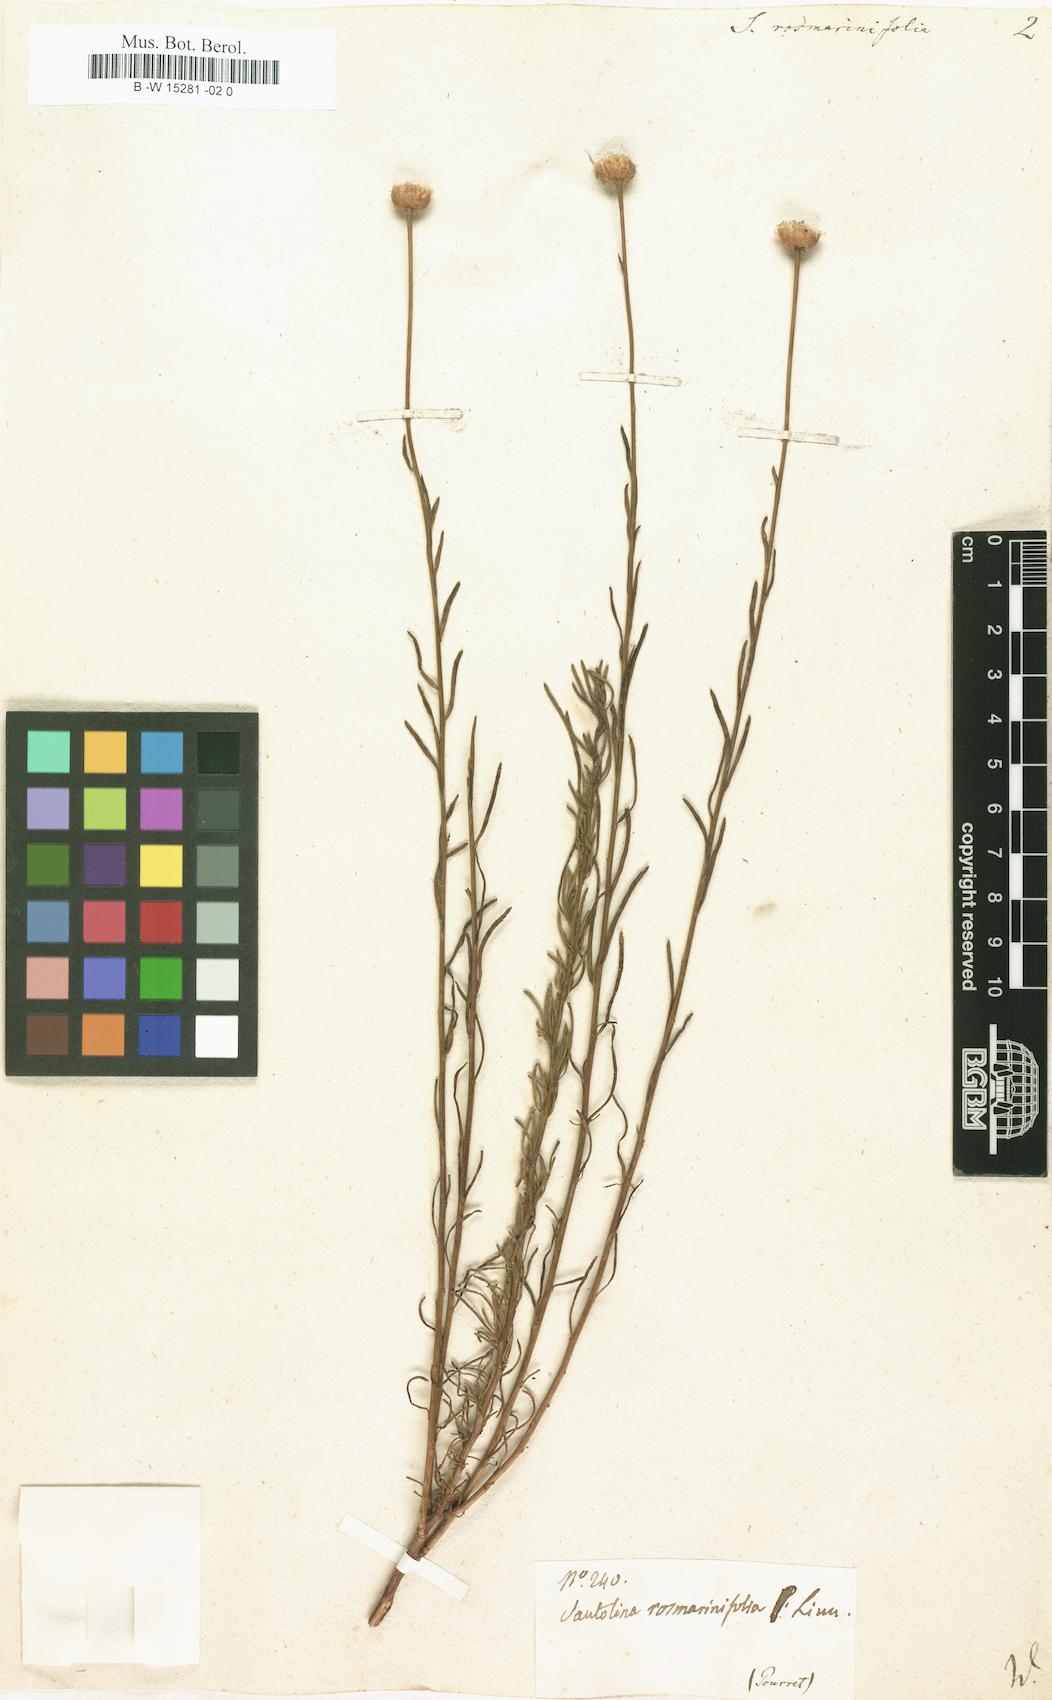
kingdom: Plantae
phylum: Tracheophyta
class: Magnoliopsida
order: Asterales
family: Asteraceae
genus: Santolina
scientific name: Santolina rosmarinifolia
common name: Holy-flax
